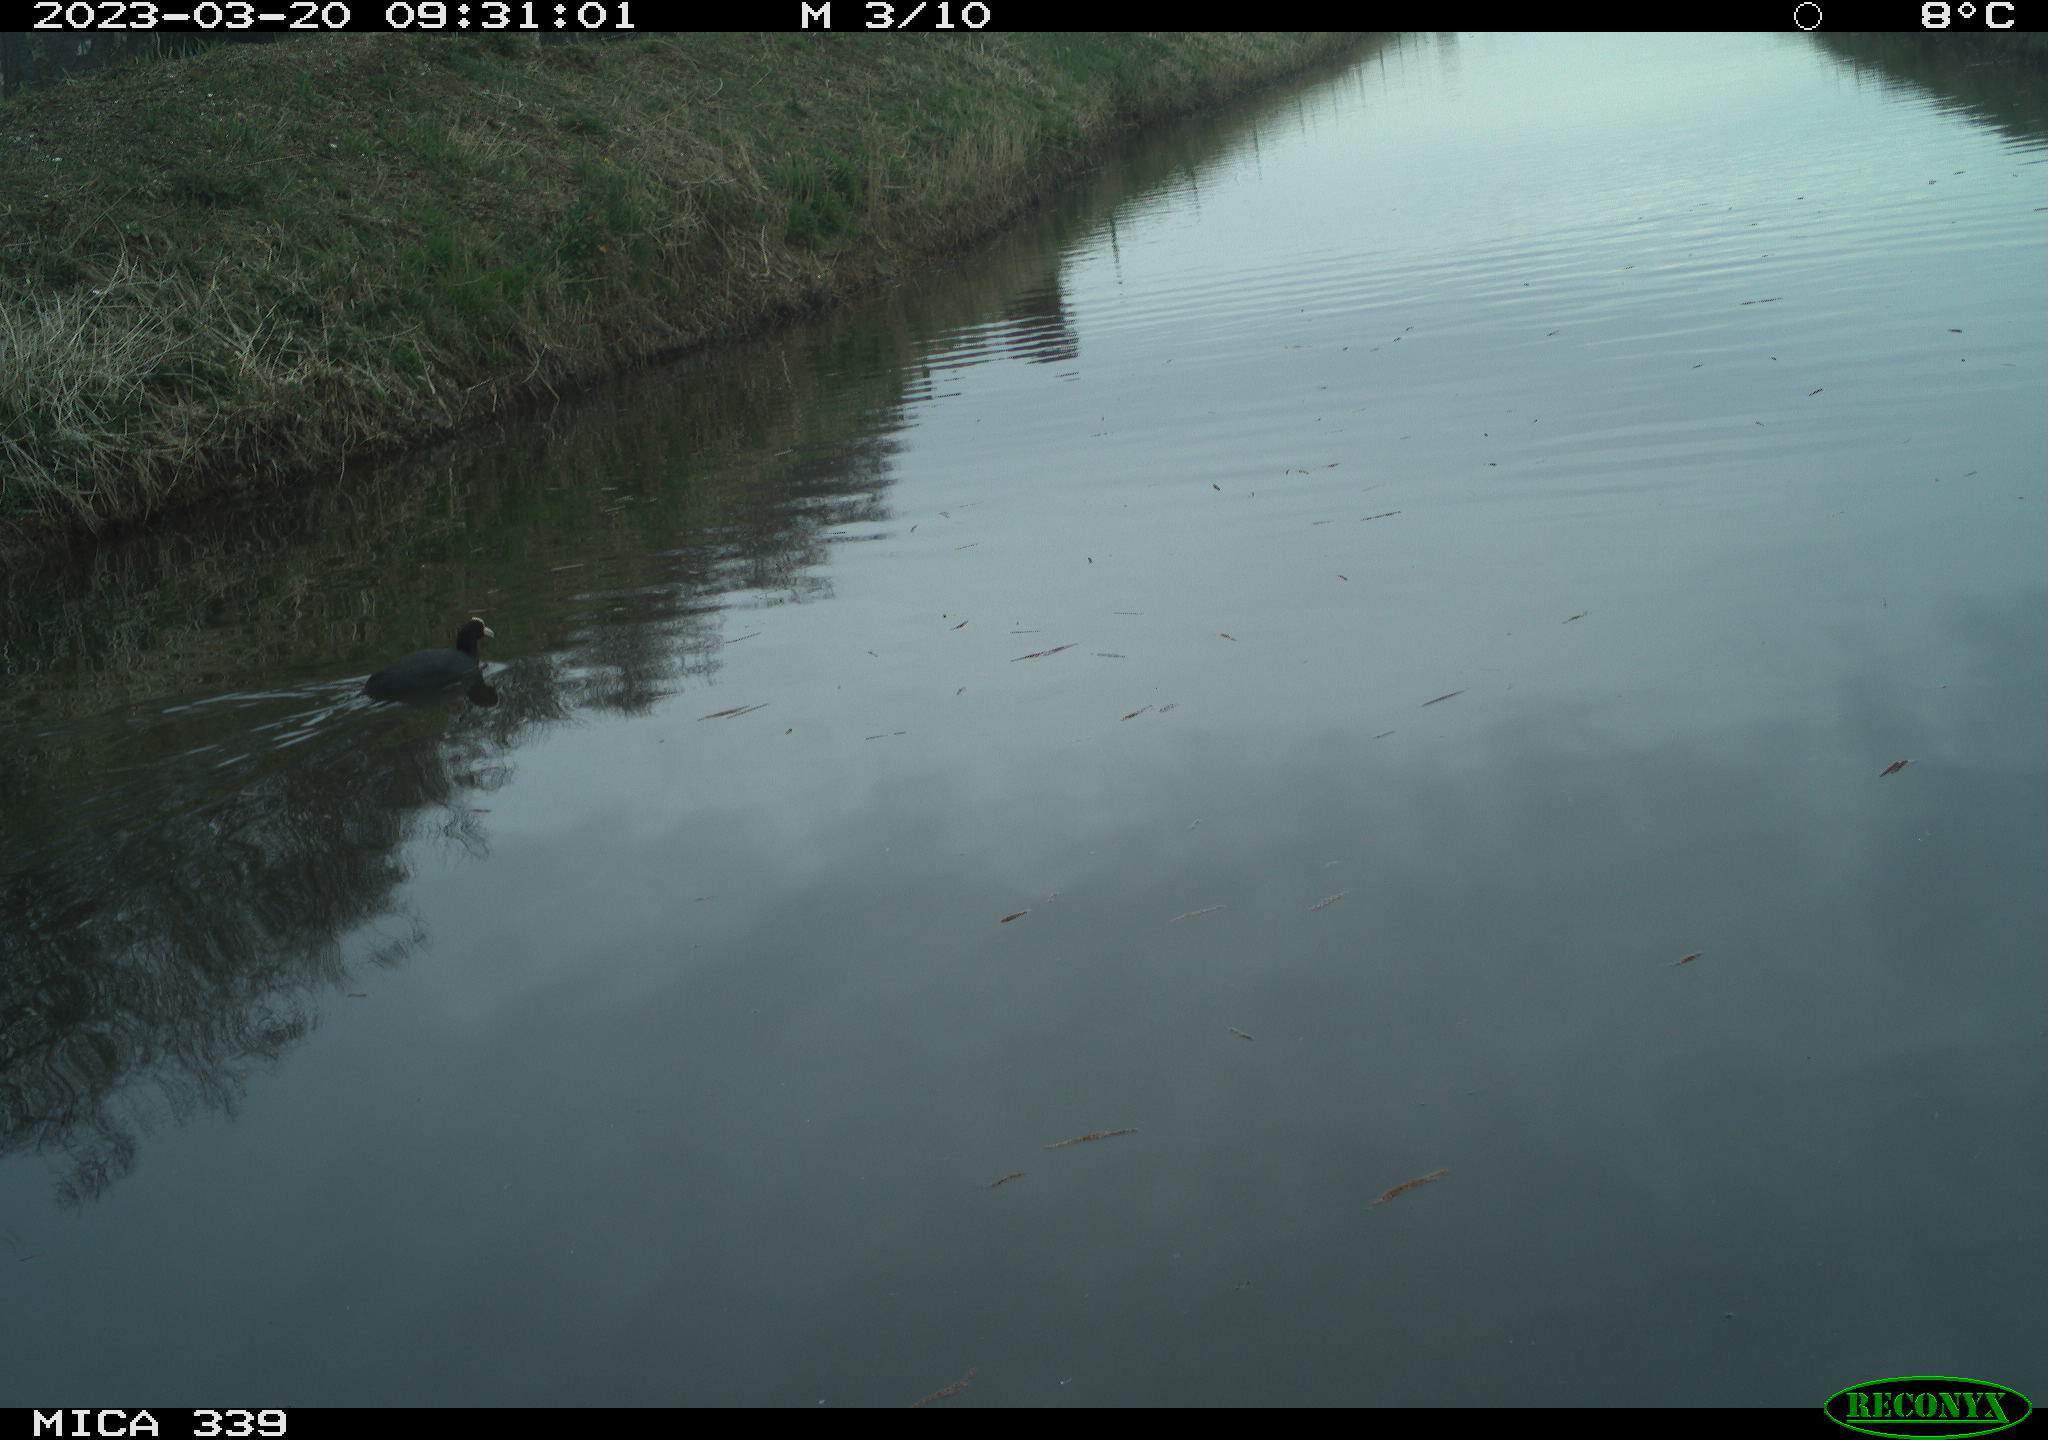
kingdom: Animalia
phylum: Chordata
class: Aves
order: Gruiformes
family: Rallidae
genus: Fulica
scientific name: Fulica atra
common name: Eurasian coot
